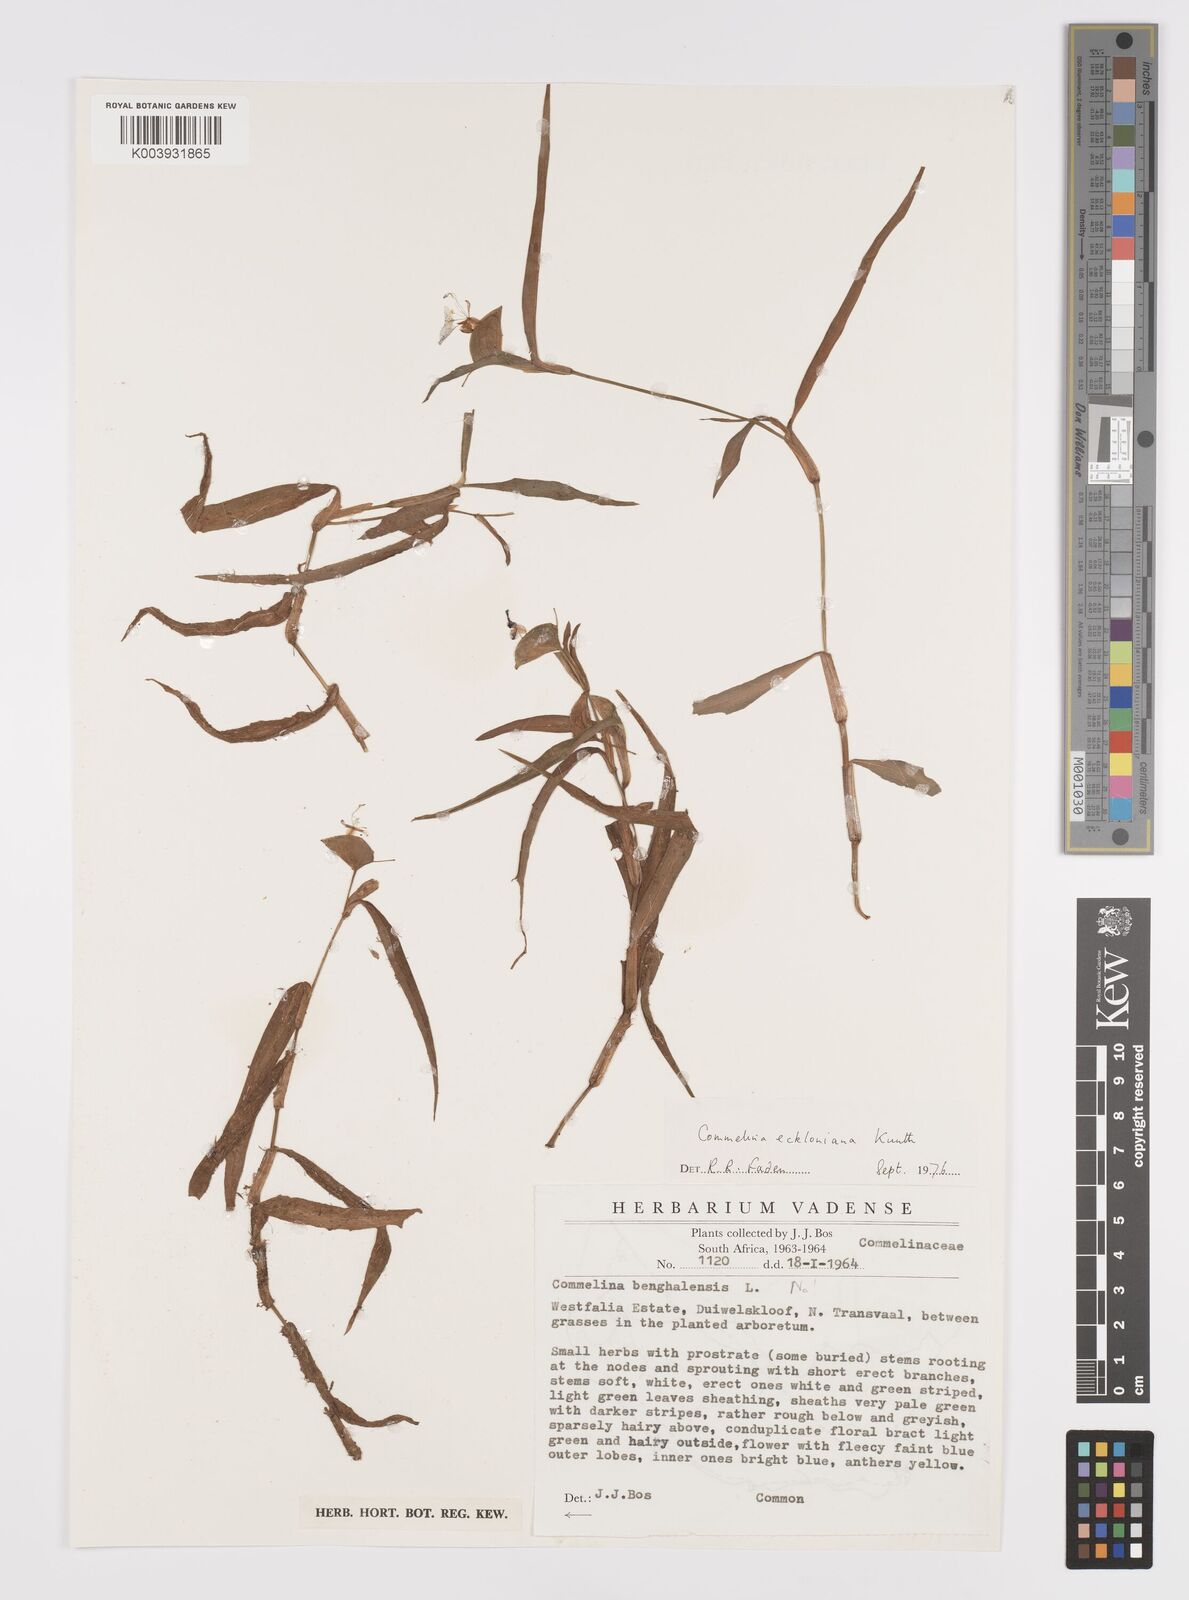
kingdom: Plantae
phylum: Tracheophyta
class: Liliopsida
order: Commelinales
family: Commelinaceae
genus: Commelina
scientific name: Commelina eckloniana
